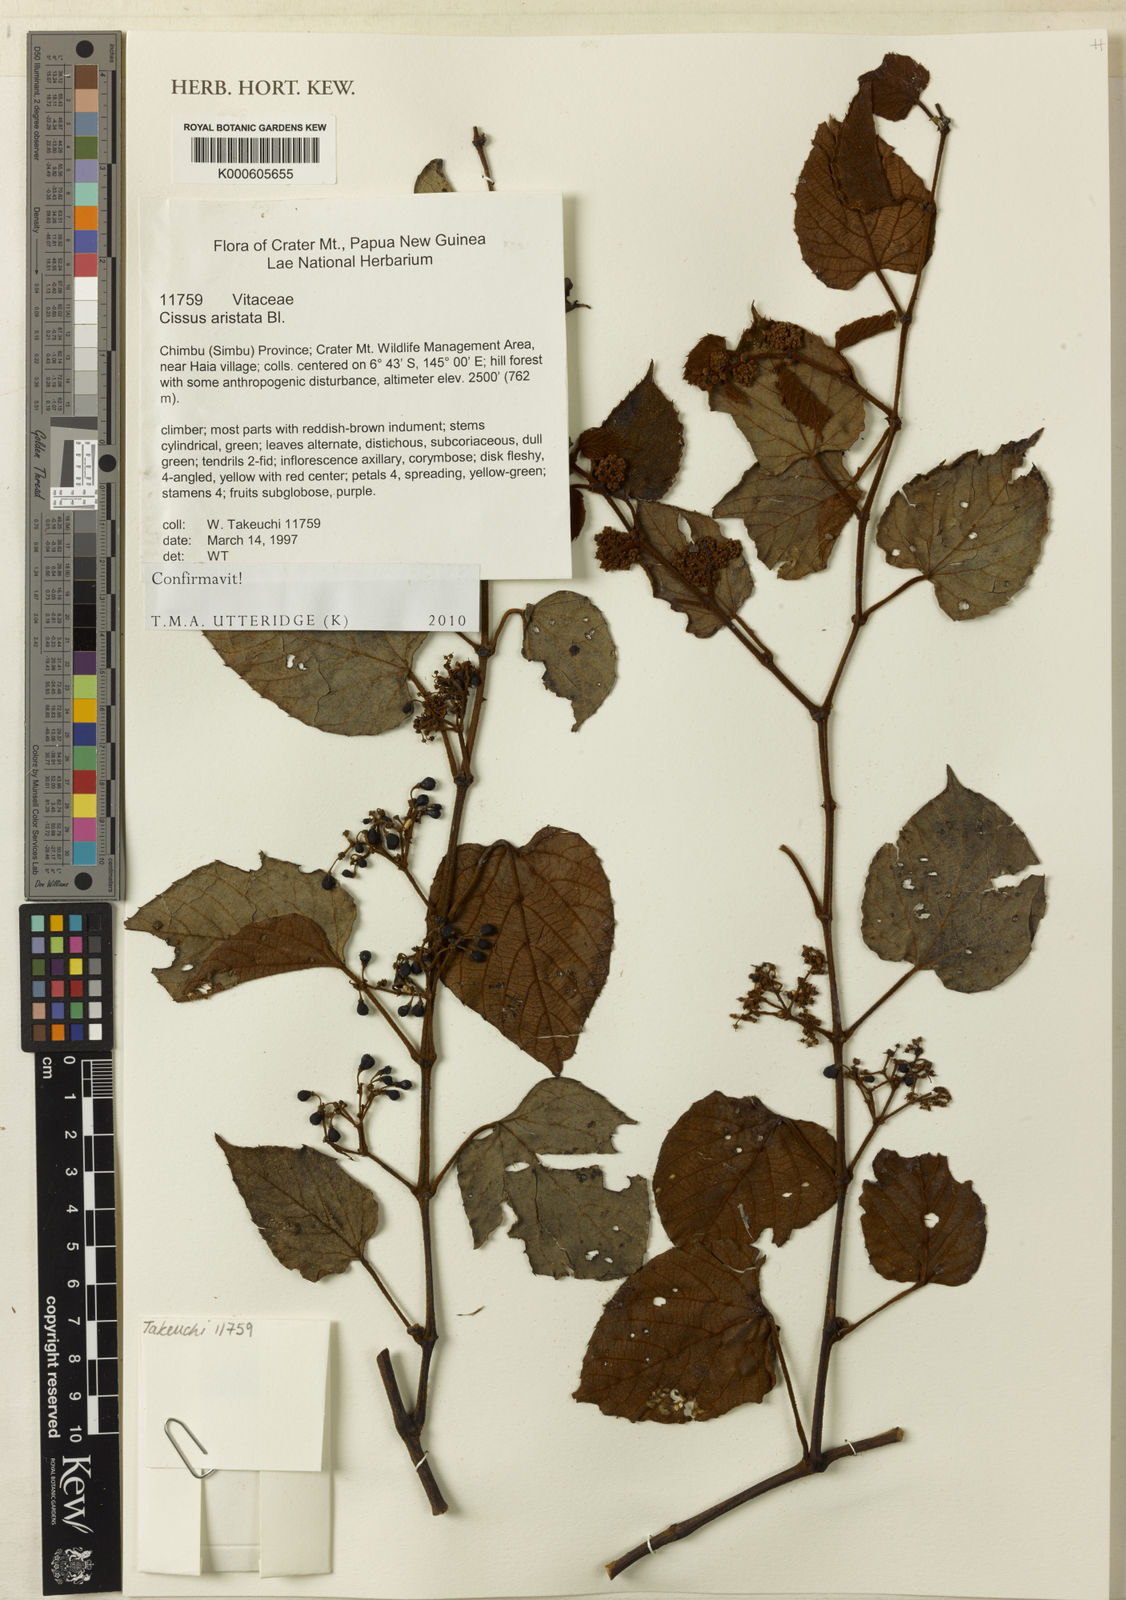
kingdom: Plantae
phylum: Tracheophyta
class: Magnoliopsida
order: Vitales
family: Vitaceae
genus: Cissus
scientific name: Cissus aristata
